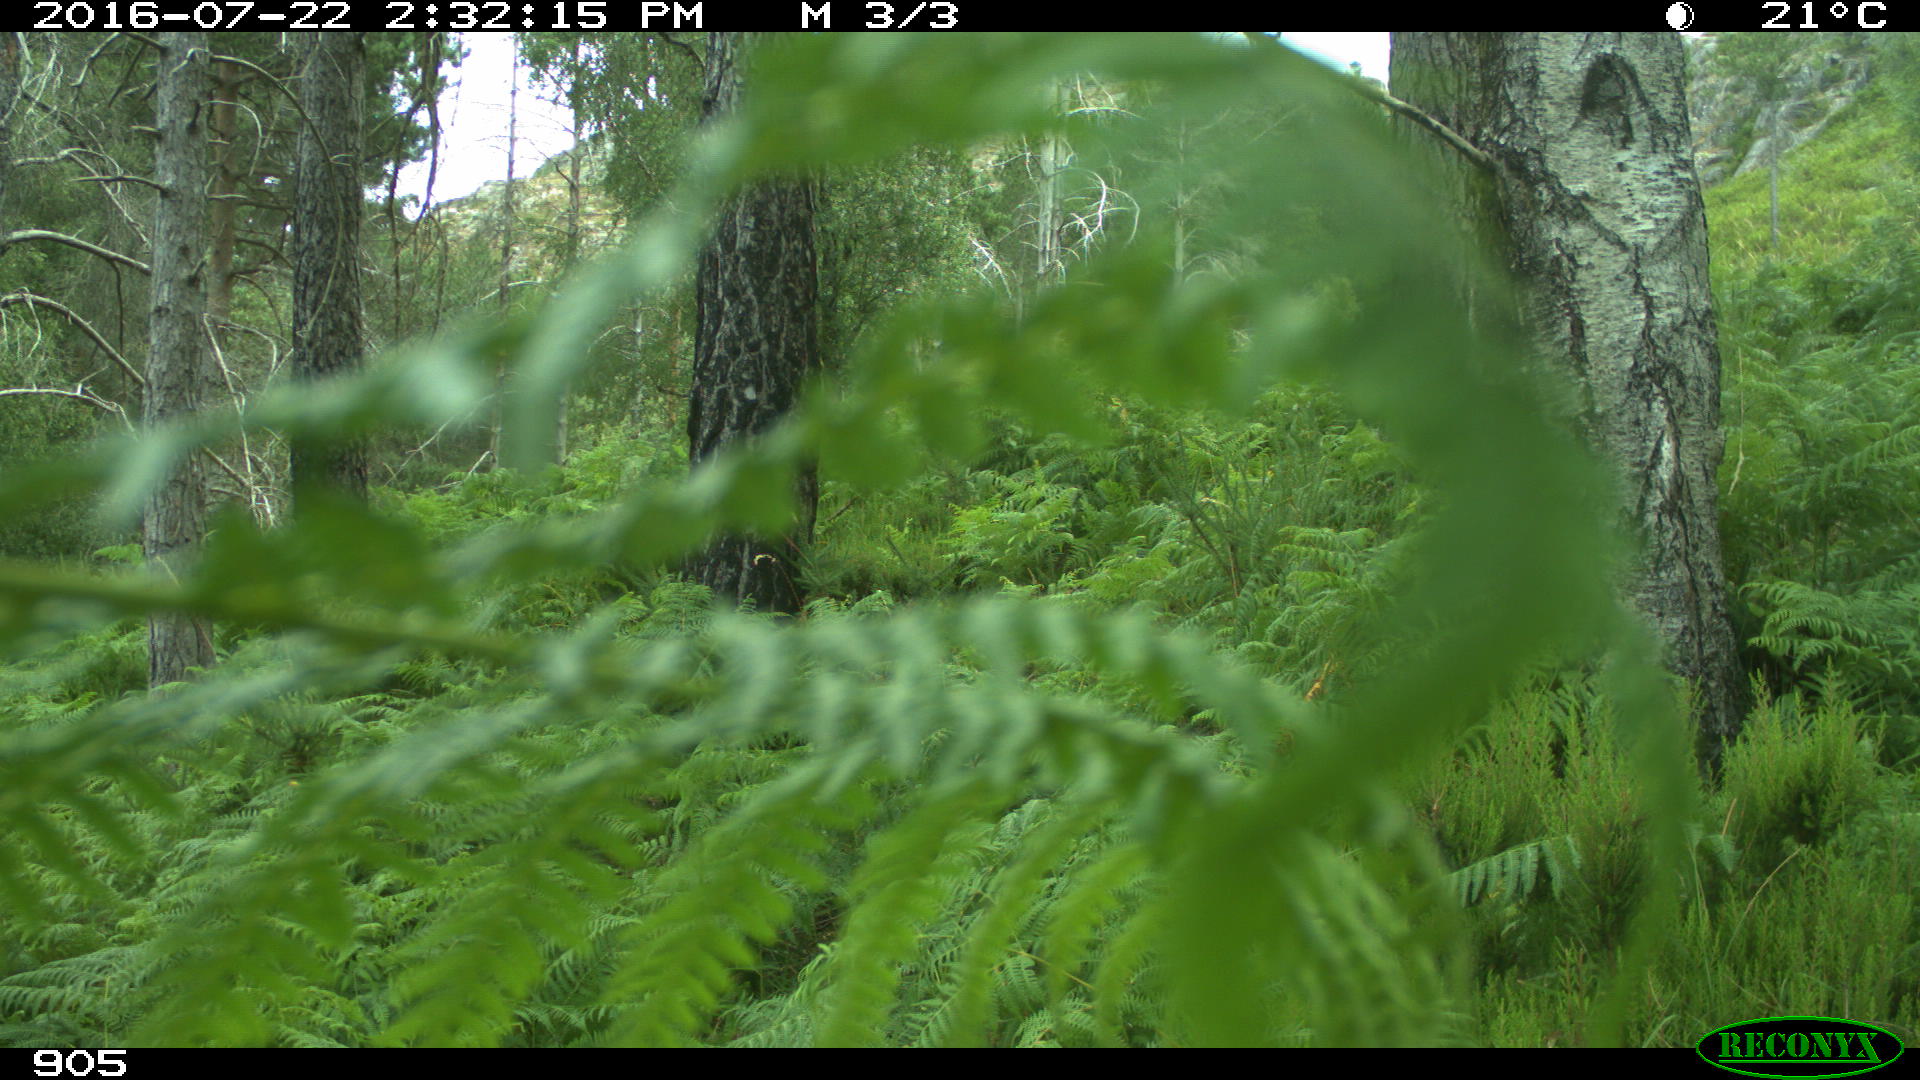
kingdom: Animalia
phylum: Chordata
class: Mammalia
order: Carnivora
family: Canidae
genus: Canis
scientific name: Canis lupus
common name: Gray wolf
